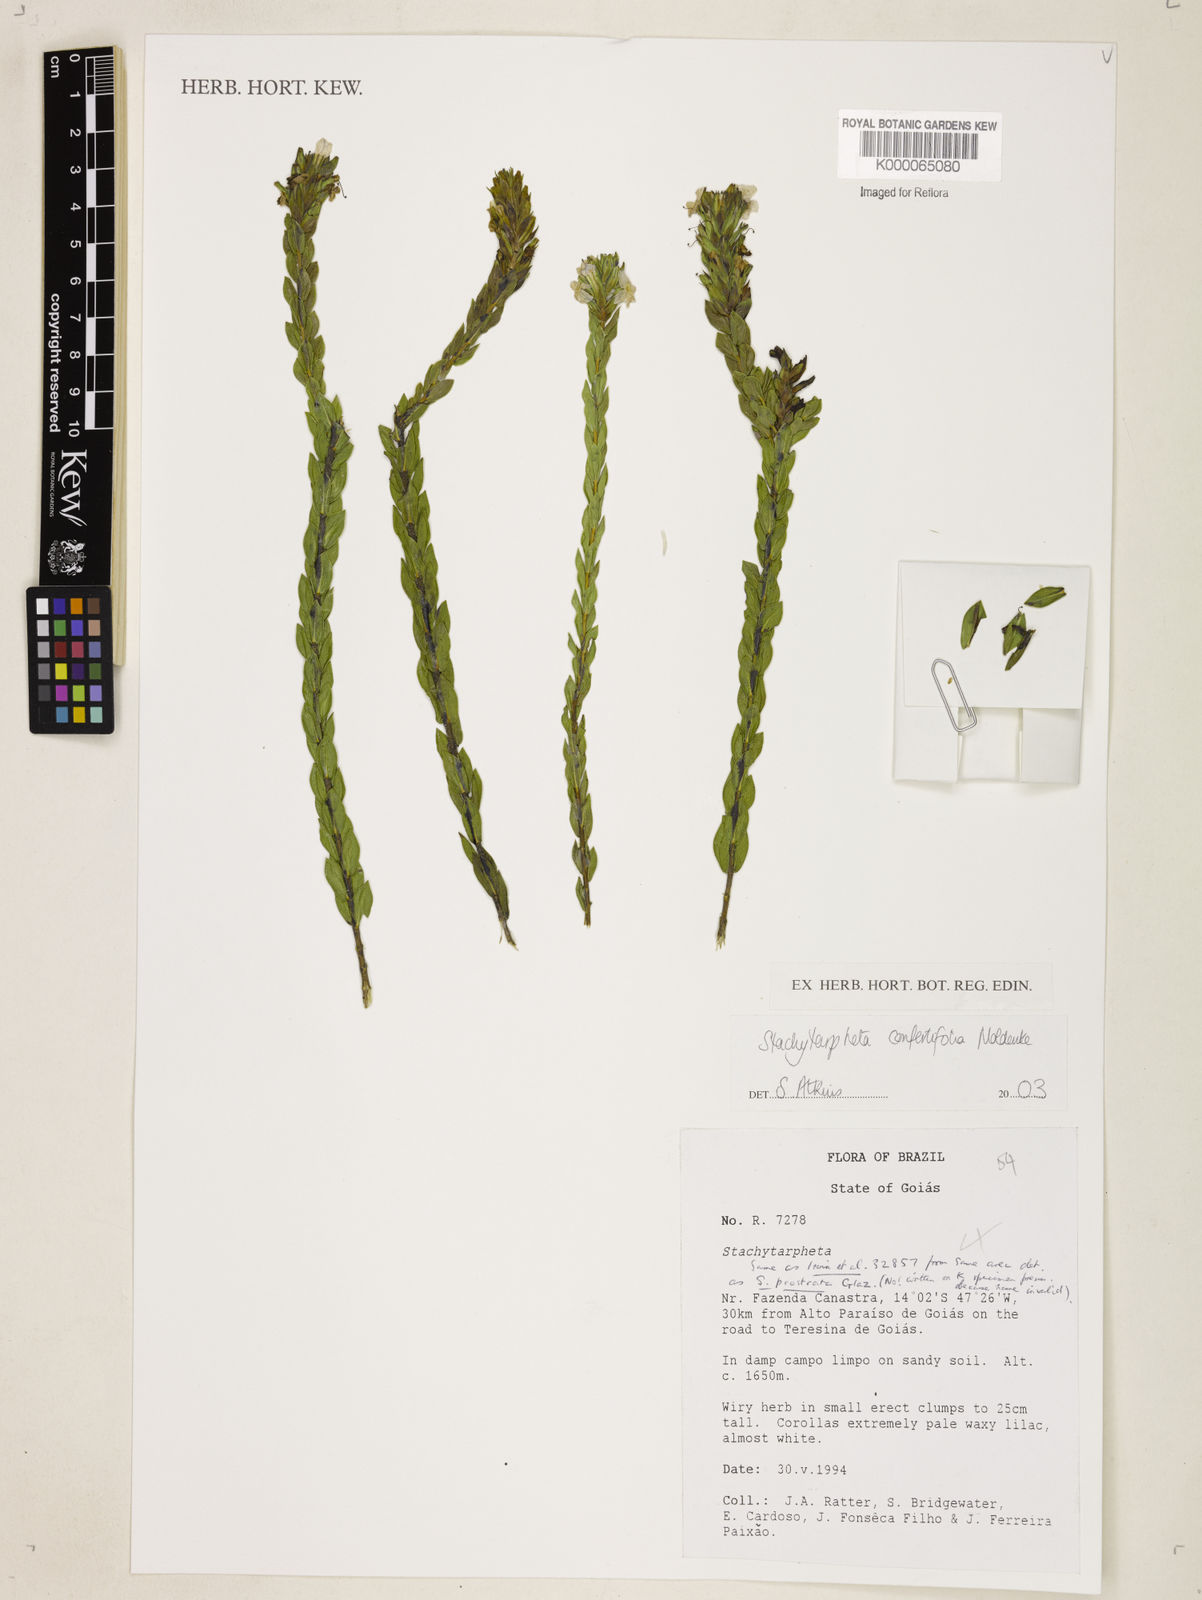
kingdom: Plantae
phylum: Tracheophyta
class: Magnoliopsida
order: Lamiales
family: Verbenaceae
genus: Stachytarpheta
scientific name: Stachytarpheta chapadensis
